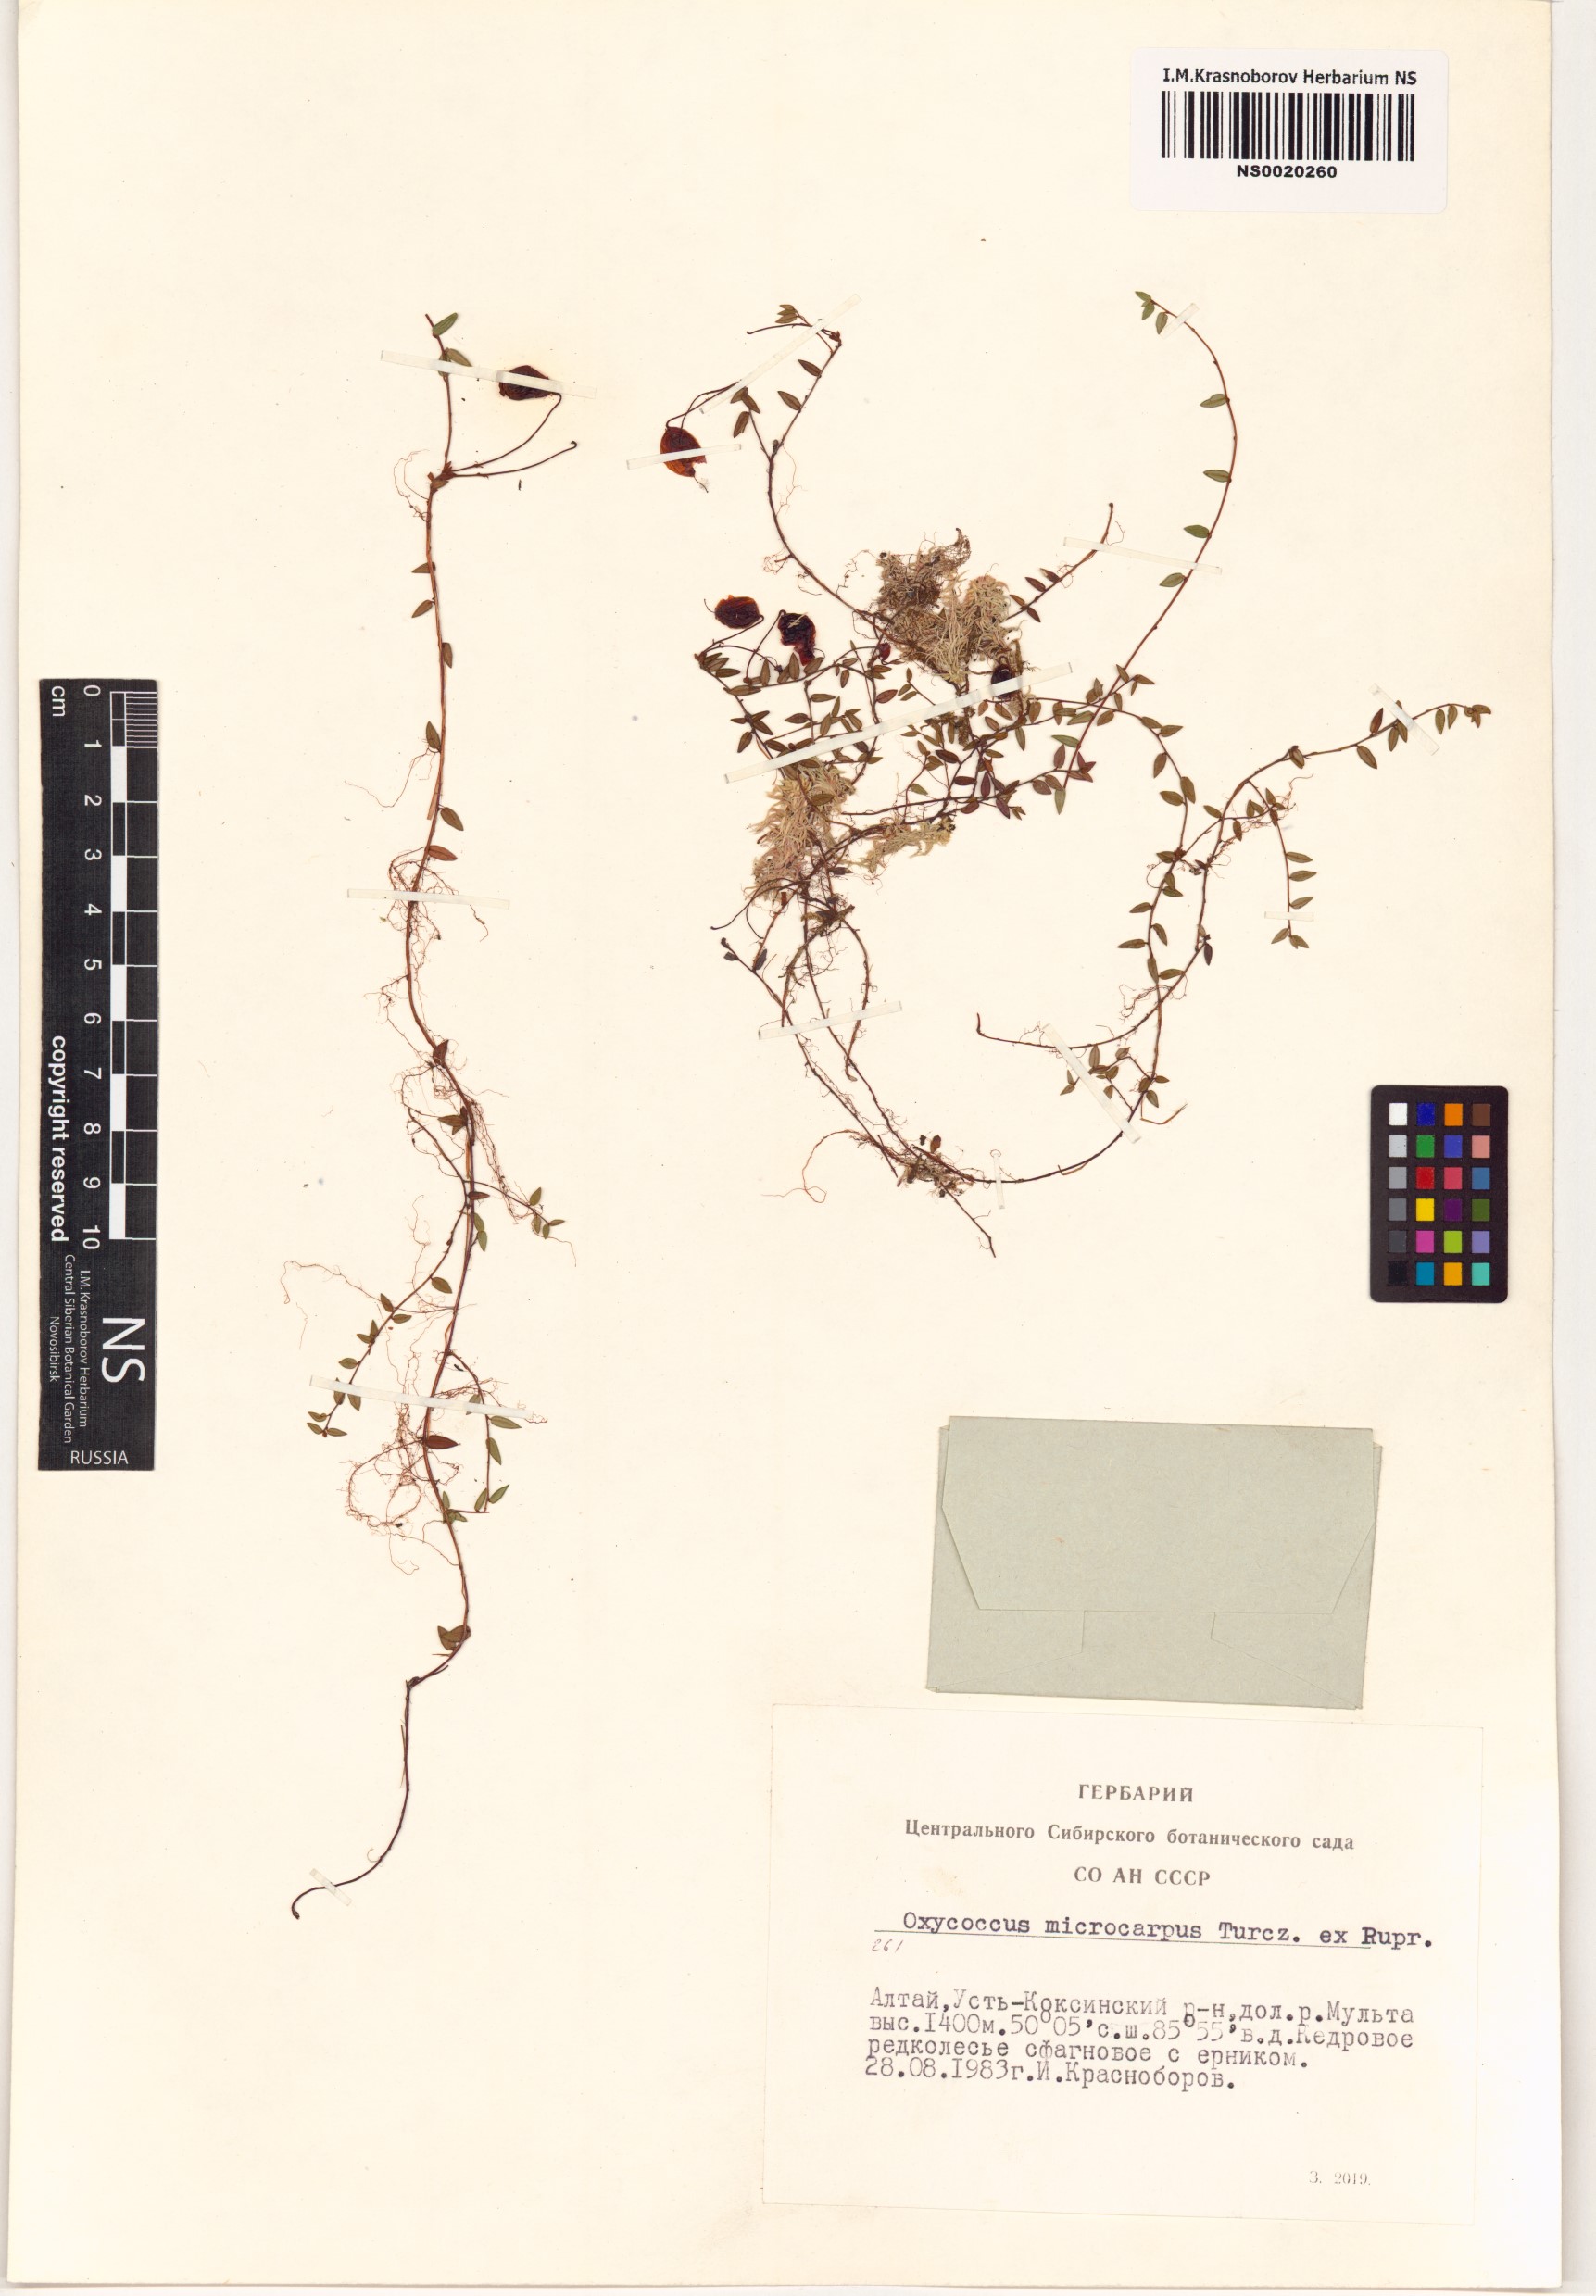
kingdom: Plantae
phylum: Tracheophyta
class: Magnoliopsida
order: Ericales
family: Ericaceae
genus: Vaccinium
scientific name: Vaccinium microcarpum
